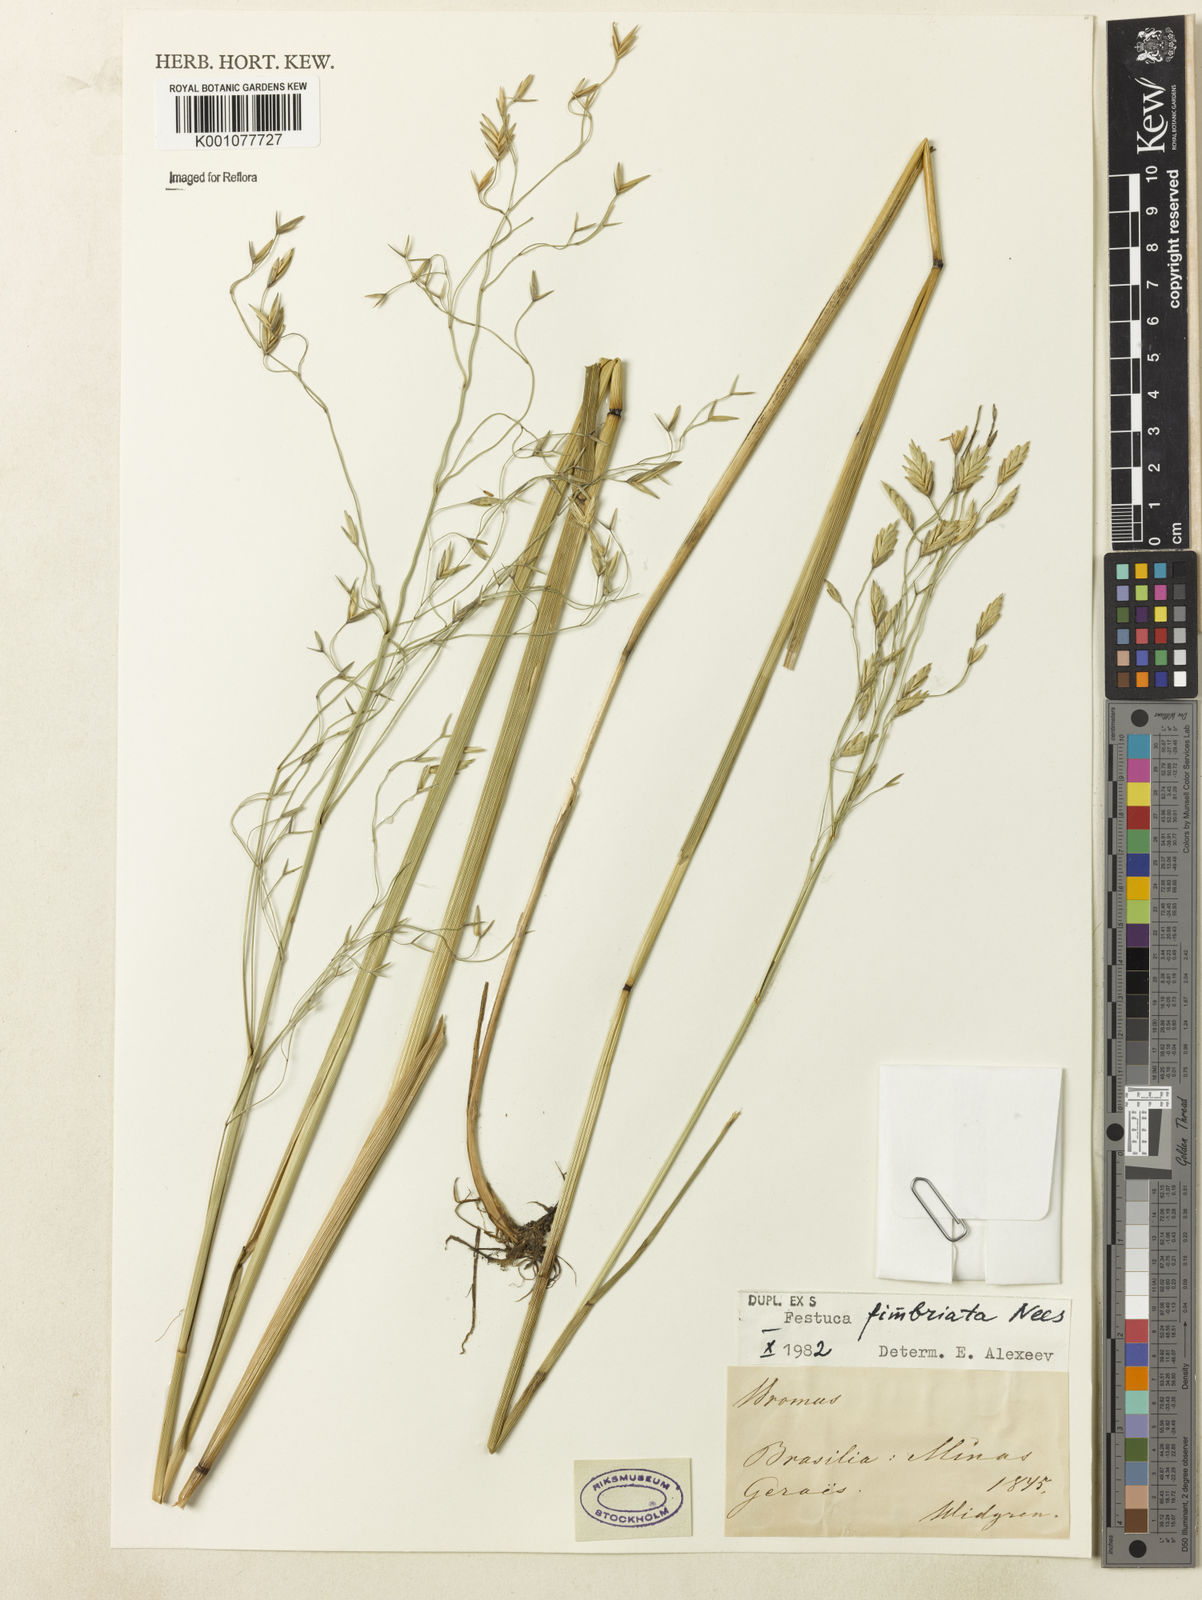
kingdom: Plantae
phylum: Tracheophyta
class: Liliopsida
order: Poales
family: Poaceae
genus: Festuca
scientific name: Festuca fimbriata
